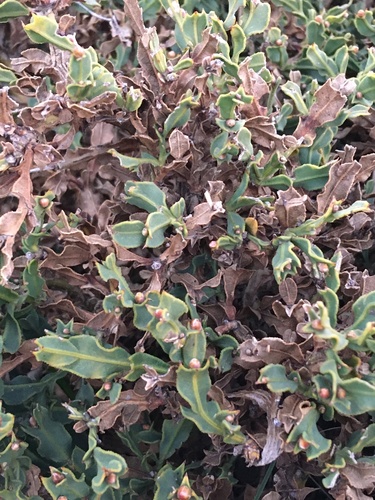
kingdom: Plantae
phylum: Tracheophyta
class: Magnoliopsida
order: Fabales
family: Fabaceae
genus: Genista
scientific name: Genista tridentata
